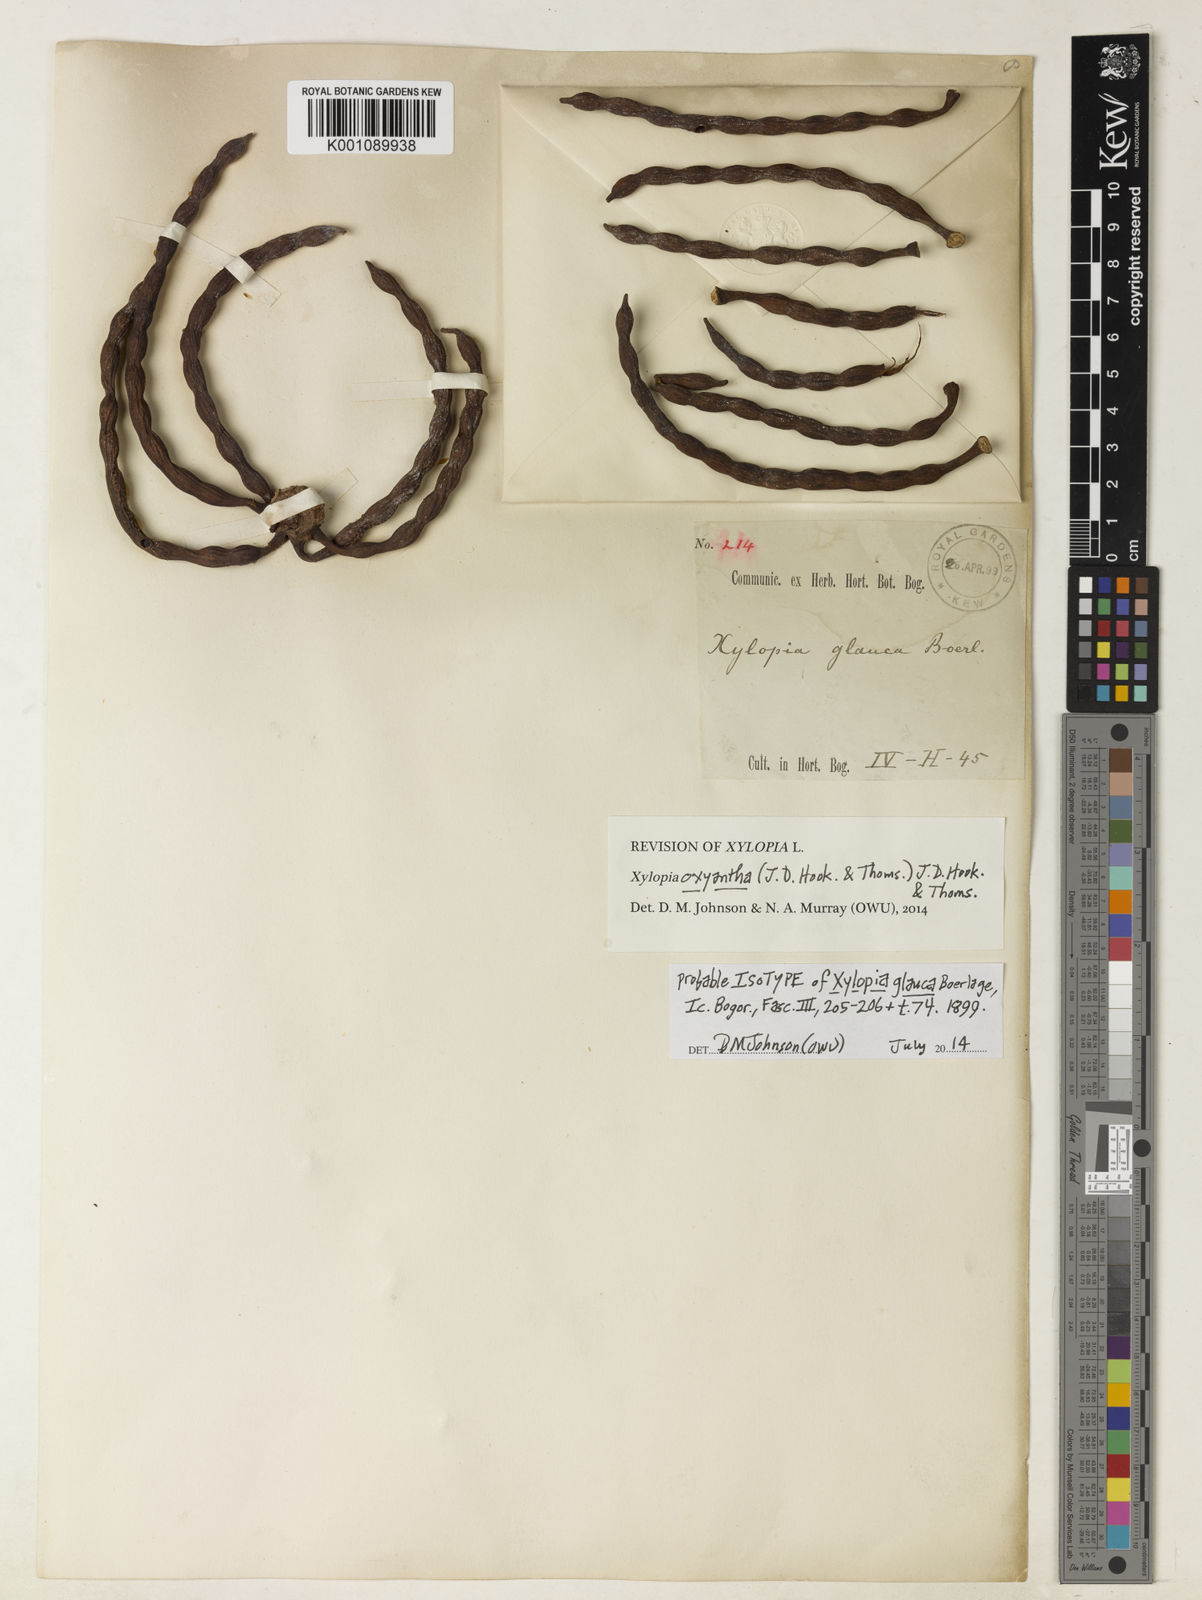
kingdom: Plantae
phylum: Tracheophyta
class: Magnoliopsida
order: Magnoliales
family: Annonaceae
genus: Xylopia
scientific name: Xylopia glauca
